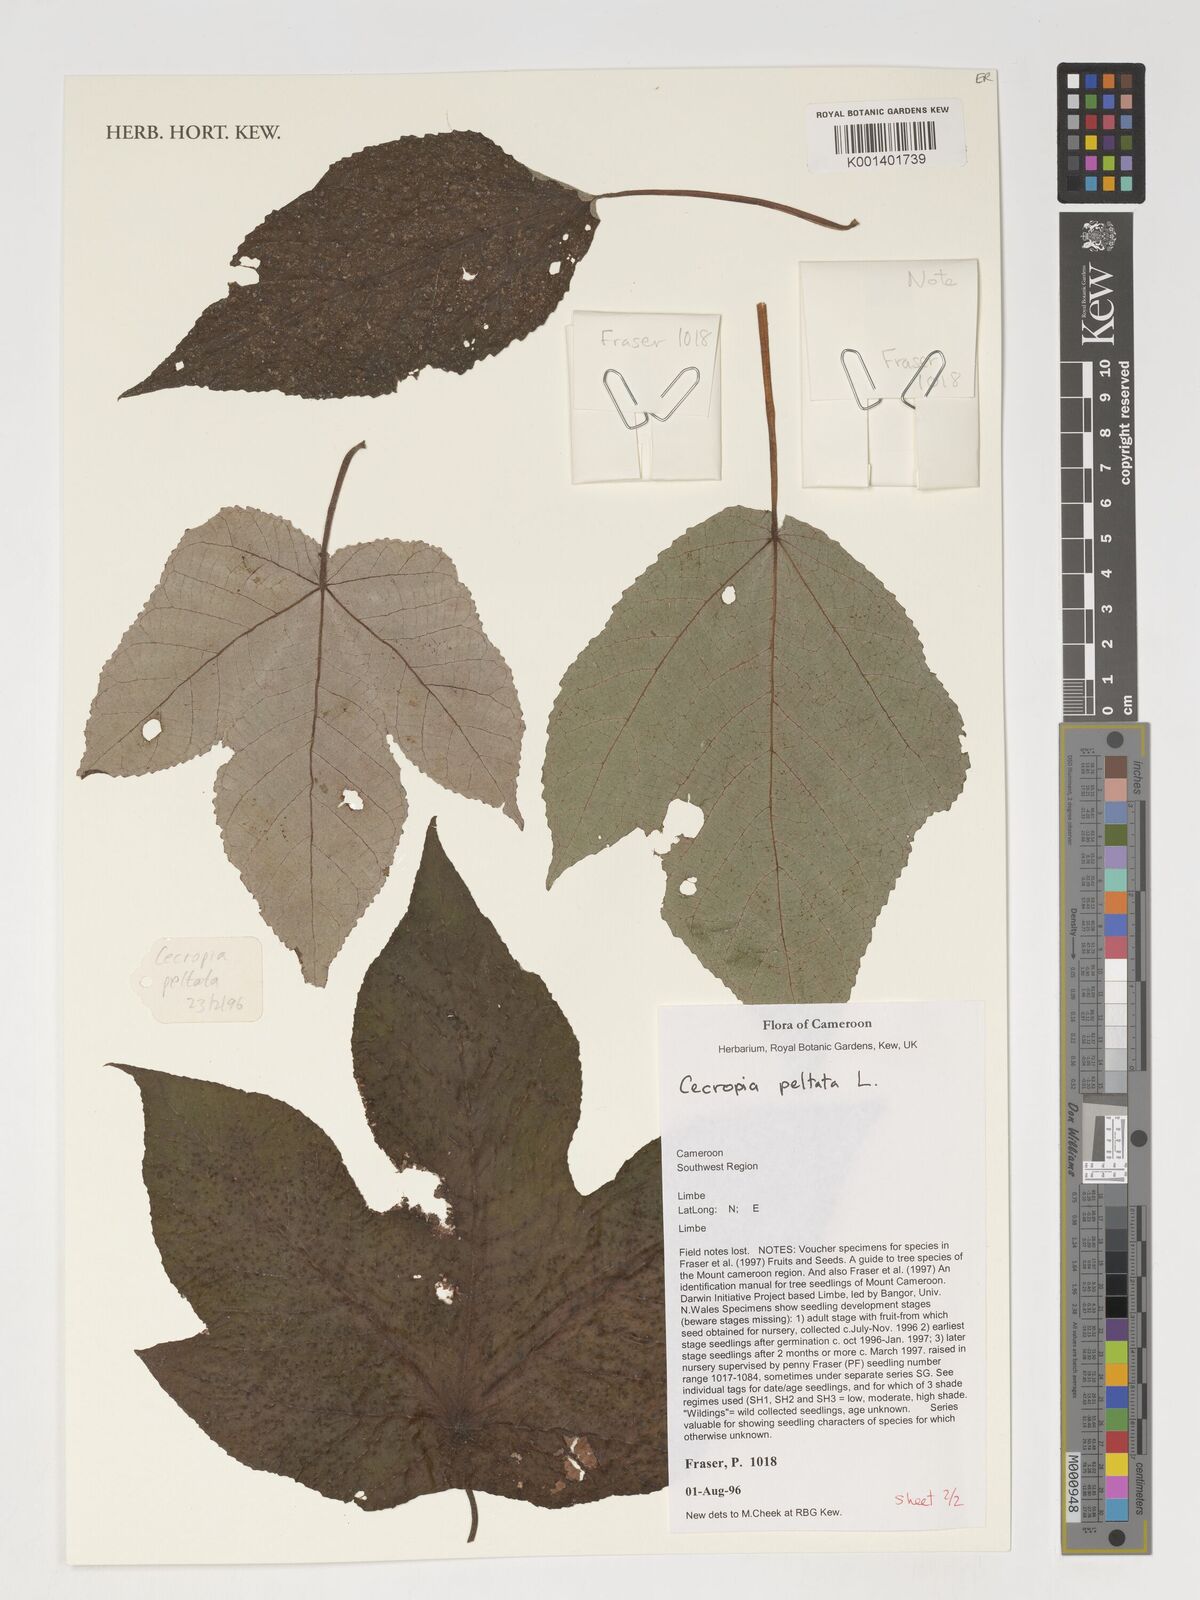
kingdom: Plantae
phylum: Tracheophyta
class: Magnoliopsida
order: Rosales
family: Urticaceae
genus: Cecropia
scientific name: Cecropia peltata
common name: Trumpet-tree
